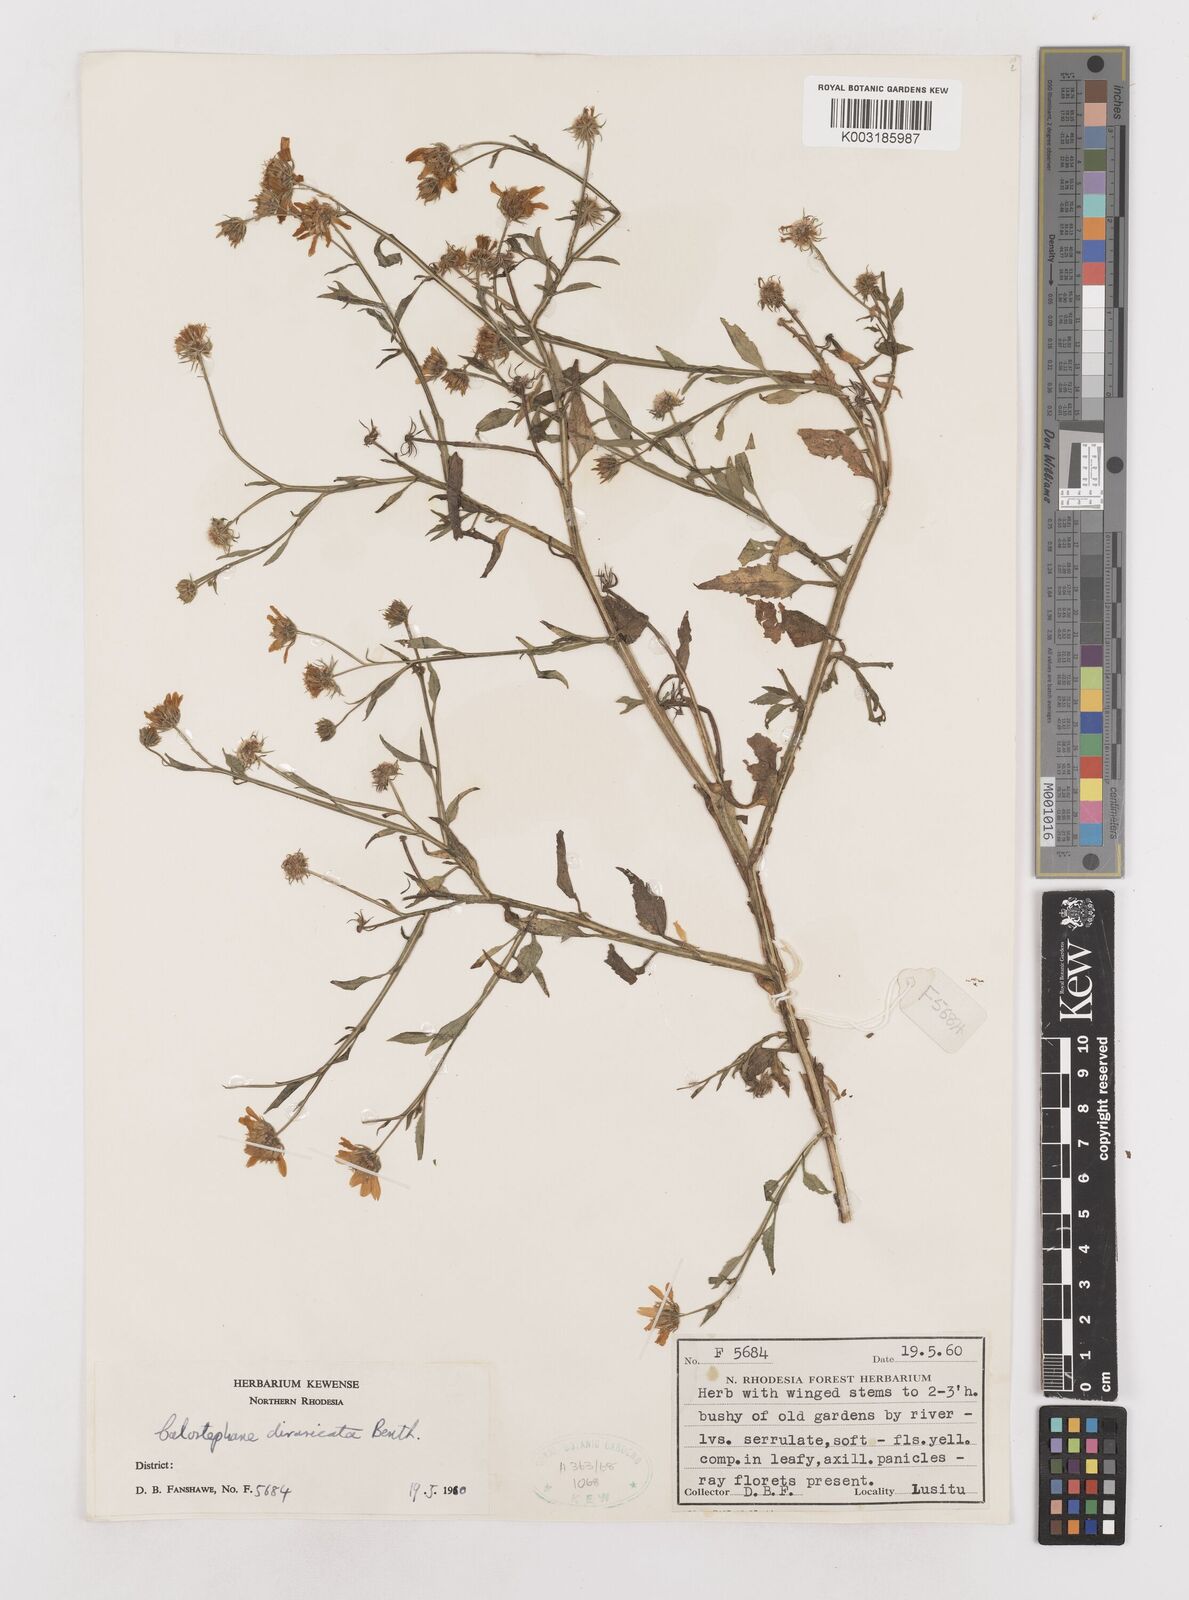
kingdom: Plantae
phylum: Tracheophyta
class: Magnoliopsida
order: Asterales
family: Asteraceae
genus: Calostephane
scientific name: Calostephane divaricata
